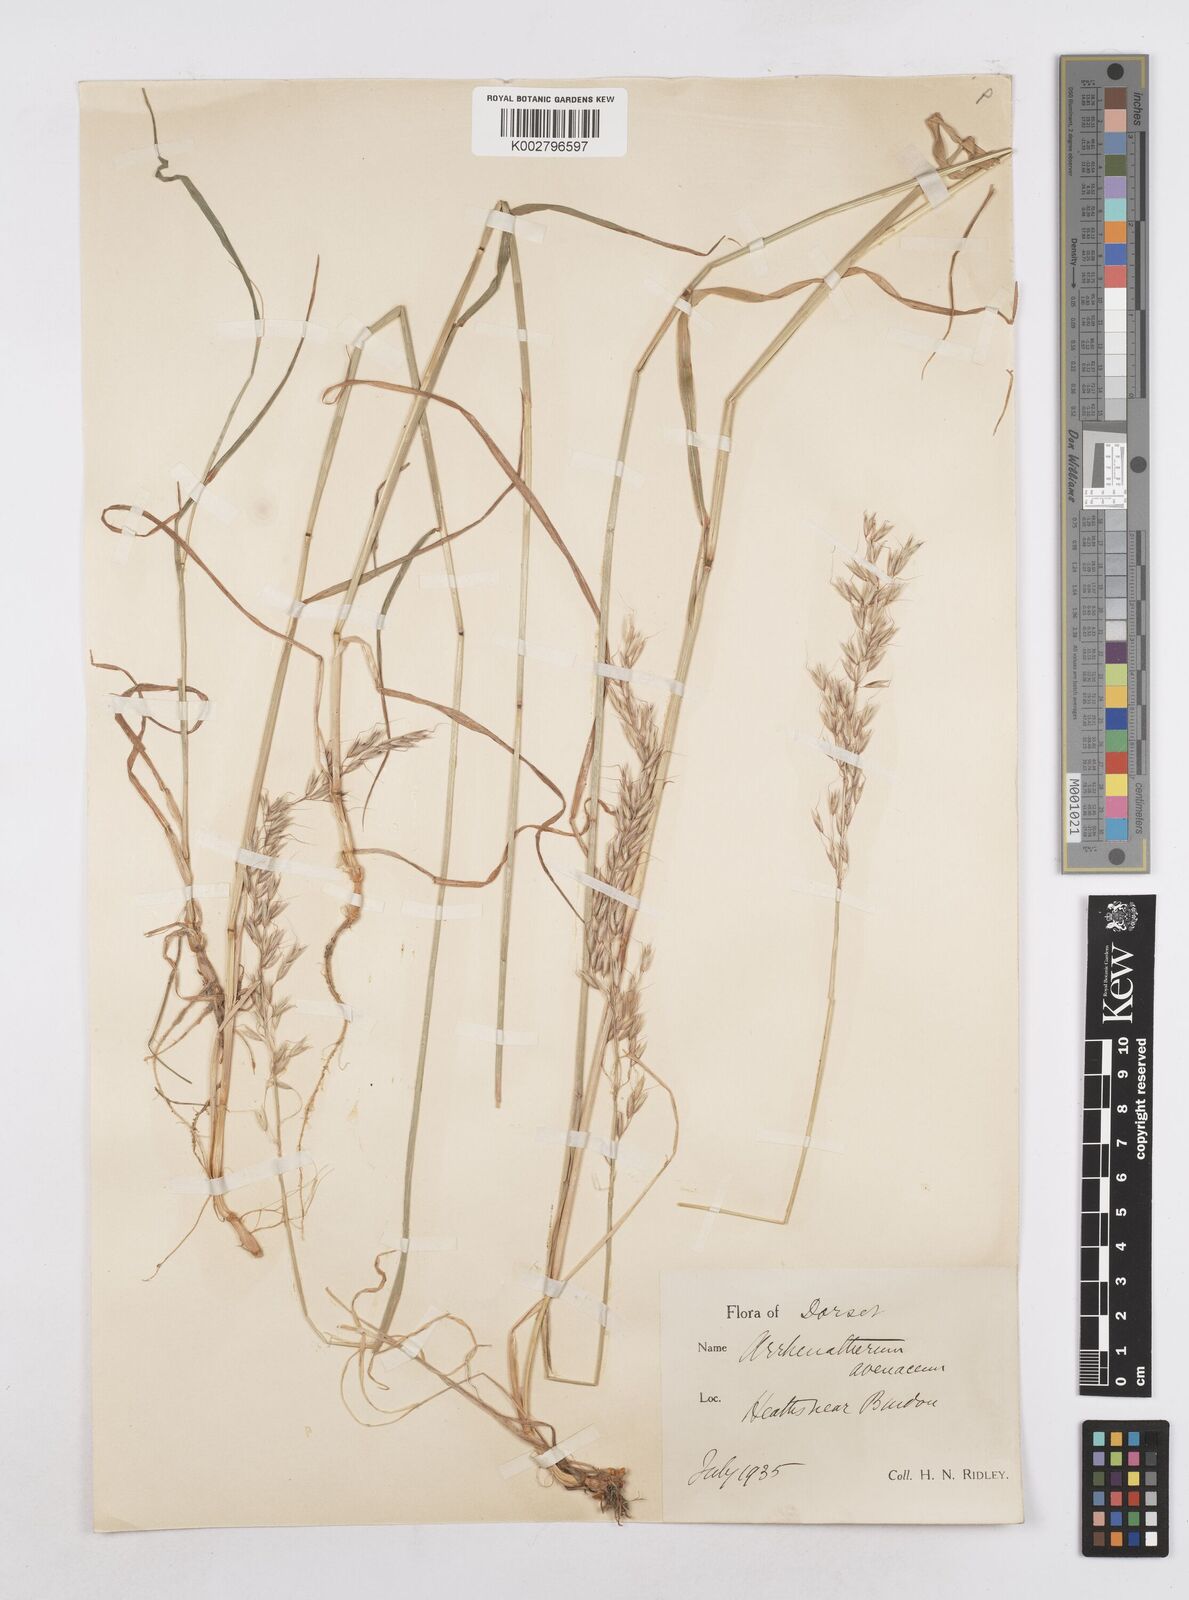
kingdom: Plantae
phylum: Tracheophyta
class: Liliopsida
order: Poales
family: Poaceae
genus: Arrhenatherum
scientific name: Arrhenatherum elatius
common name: Tall oatgrass
